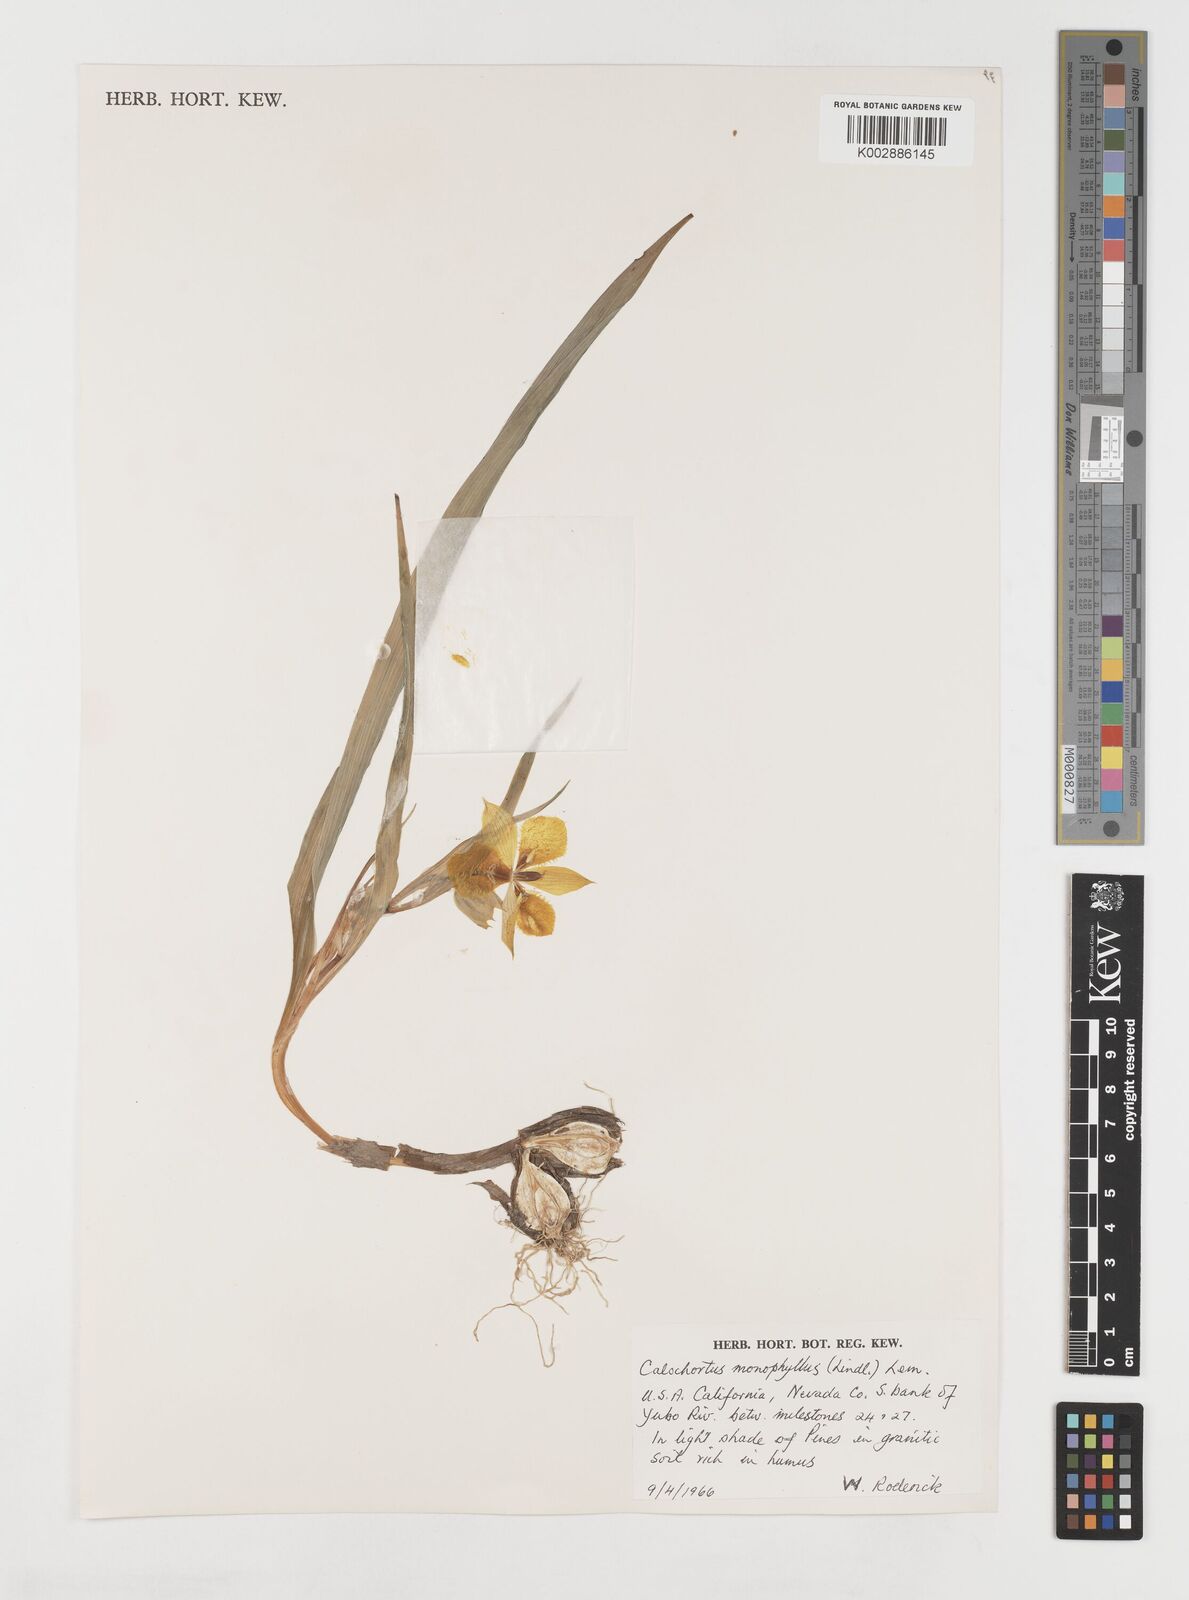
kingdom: Plantae
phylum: Tracheophyta
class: Liliopsida
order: Liliales
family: Liliaceae
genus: Calochortus
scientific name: Calochortus monophyllus
